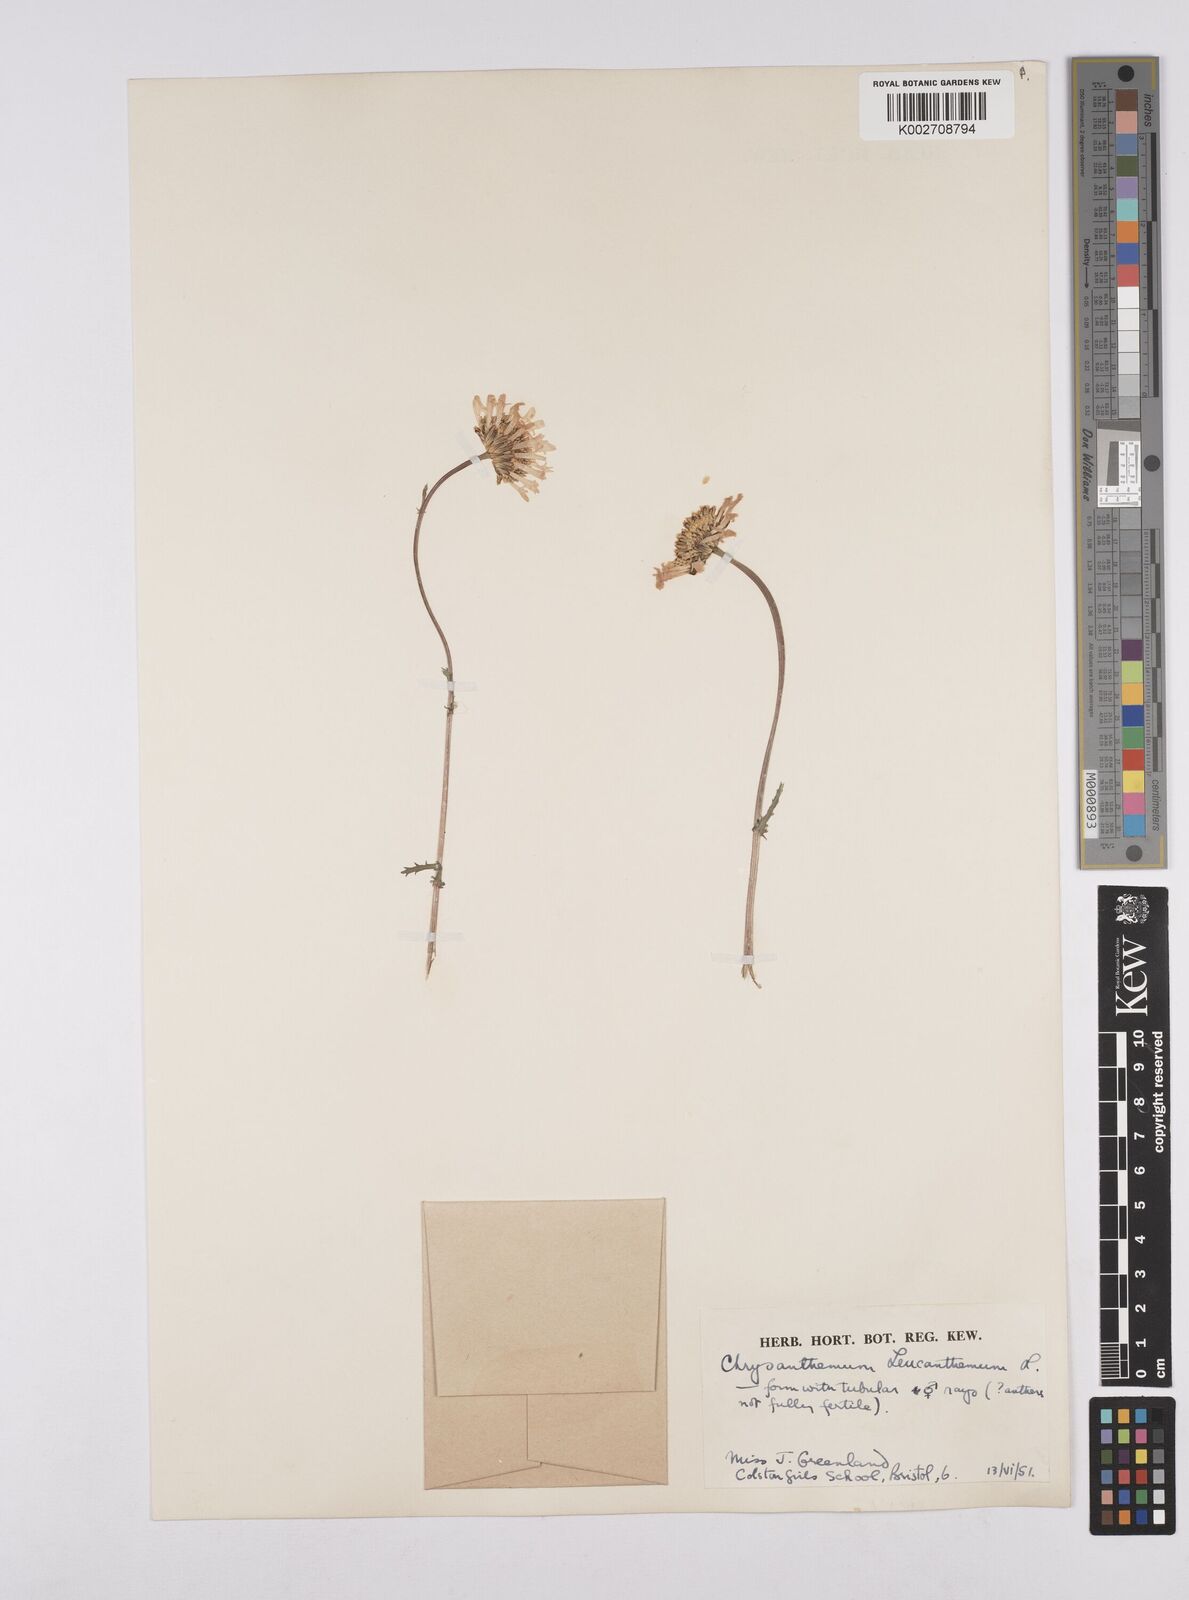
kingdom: Plantae
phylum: Tracheophyta
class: Magnoliopsida
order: Asterales
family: Asteraceae
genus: Leucanthemum
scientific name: Leucanthemum vulgare
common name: Oxeye daisy
